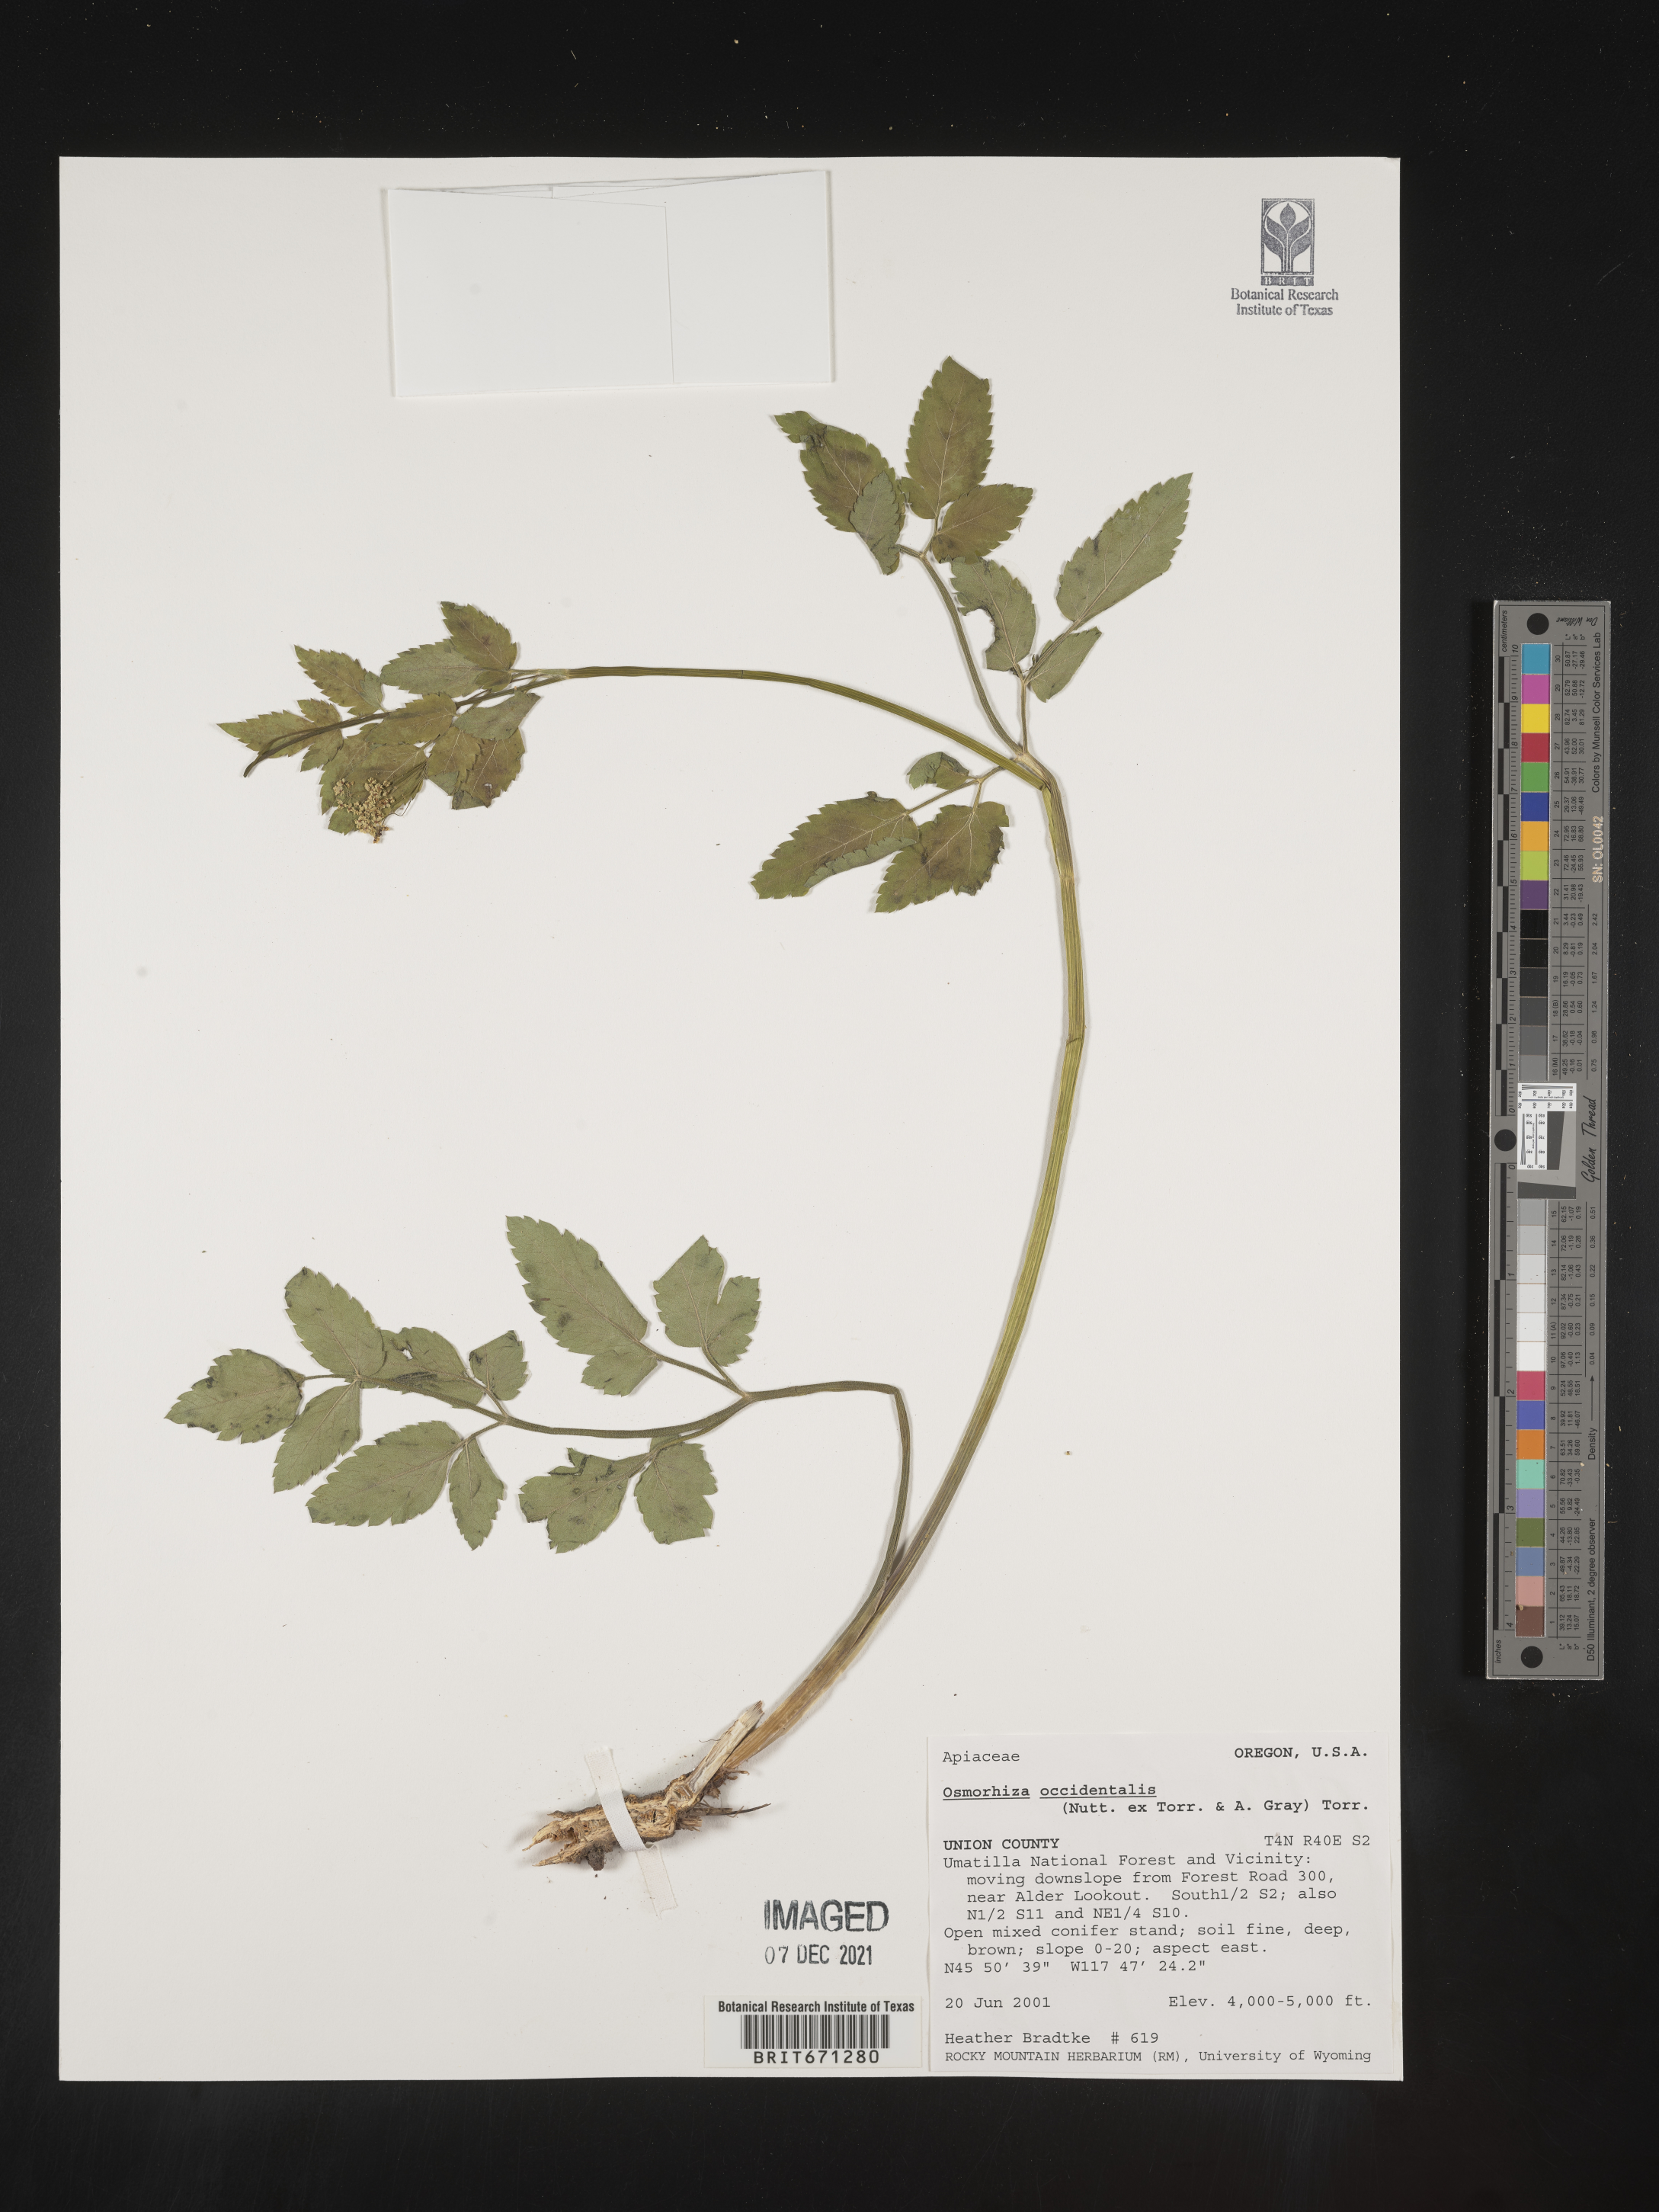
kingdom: Plantae
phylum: Tracheophyta
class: Magnoliopsida
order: Apiales
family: Apiaceae
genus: Osmorhiza
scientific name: Osmorhiza occidentalis
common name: Western sweet cicely
